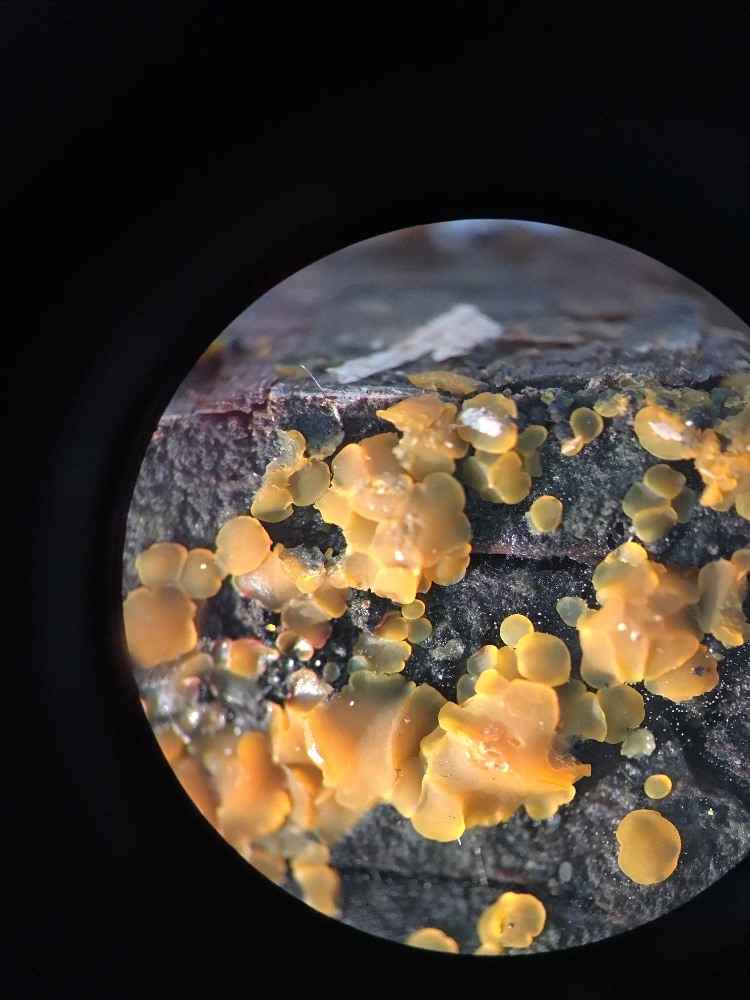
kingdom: Fungi
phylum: Ascomycota
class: Orbiliomycetes
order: Orbiliales
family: Orbiliaceae
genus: Orbilia
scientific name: Orbilia xanthostigma
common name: krumsporet voksskive
